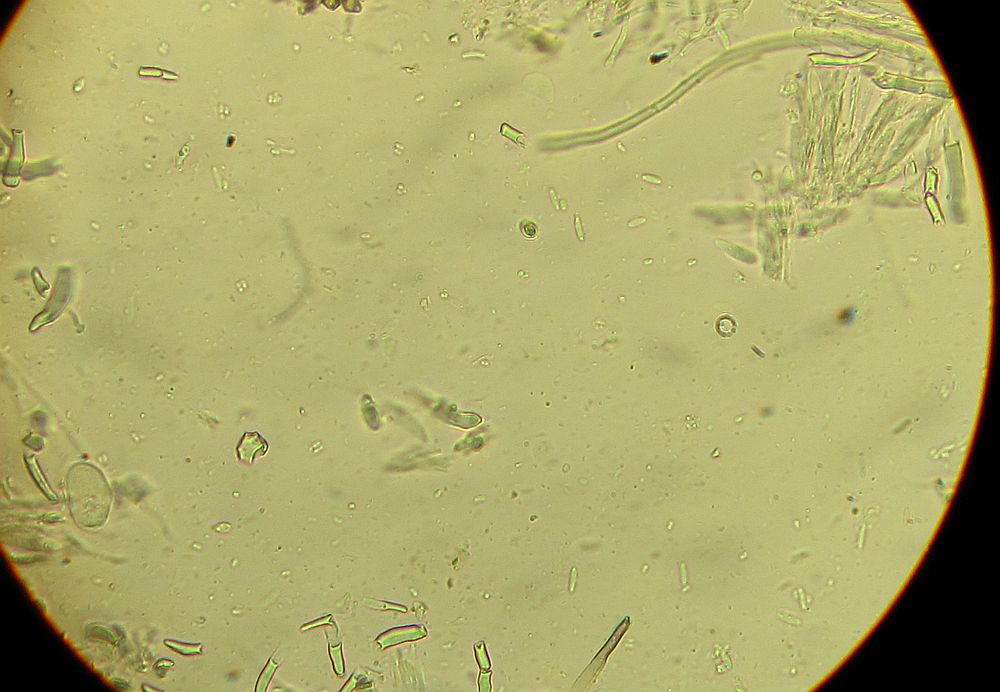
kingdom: Fungi
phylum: Ascomycota
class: Leotiomycetes
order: Helotiales
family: Hyaloscyphaceae
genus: Hyalopeziza
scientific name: Hyalopeziza millepunctata
